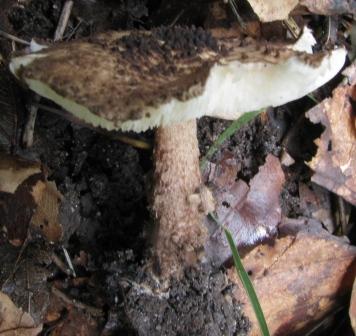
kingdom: Fungi
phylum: Basidiomycota
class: Agaricomycetes
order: Agaricales
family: Agaricaceae
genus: Echinoderma
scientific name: Echinoderma jacobi
